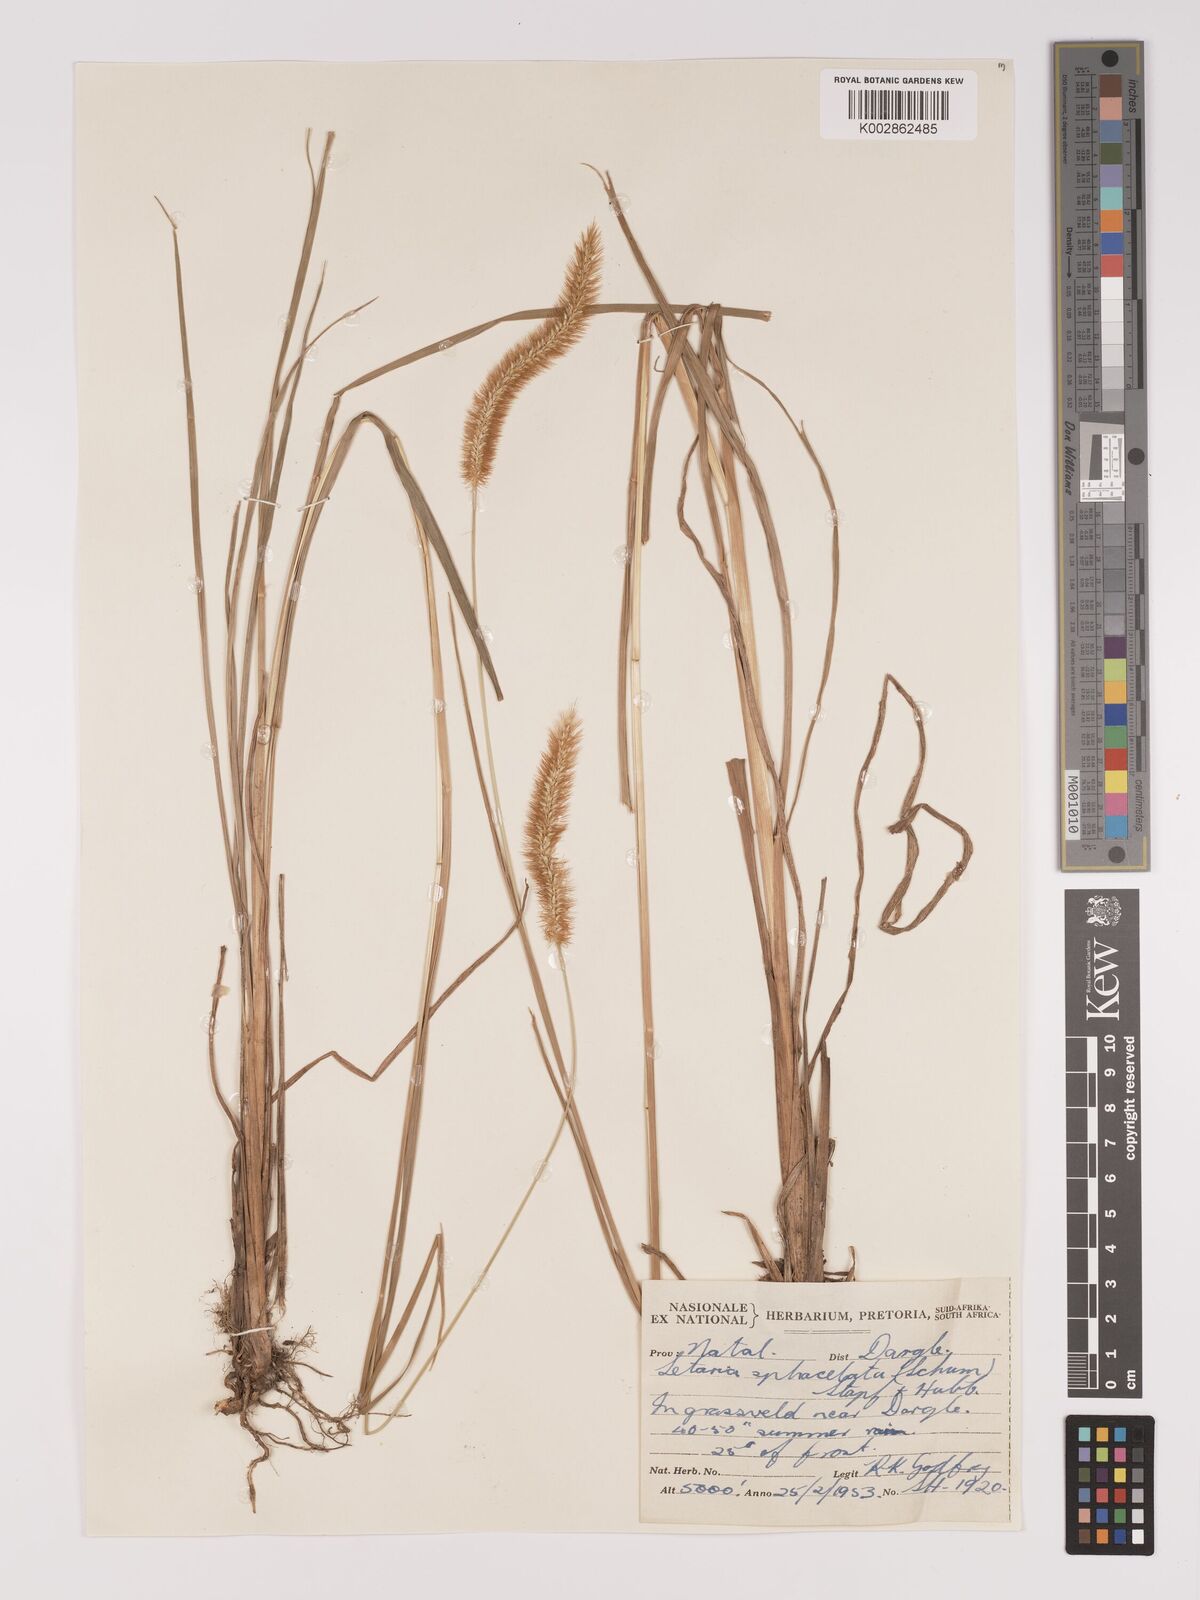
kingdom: Plantae
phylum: Tracheophyta
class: Liliopsida
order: Poales
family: Poaceae
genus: Setaria
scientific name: Setaria sphacelata
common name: African bristlegrass
